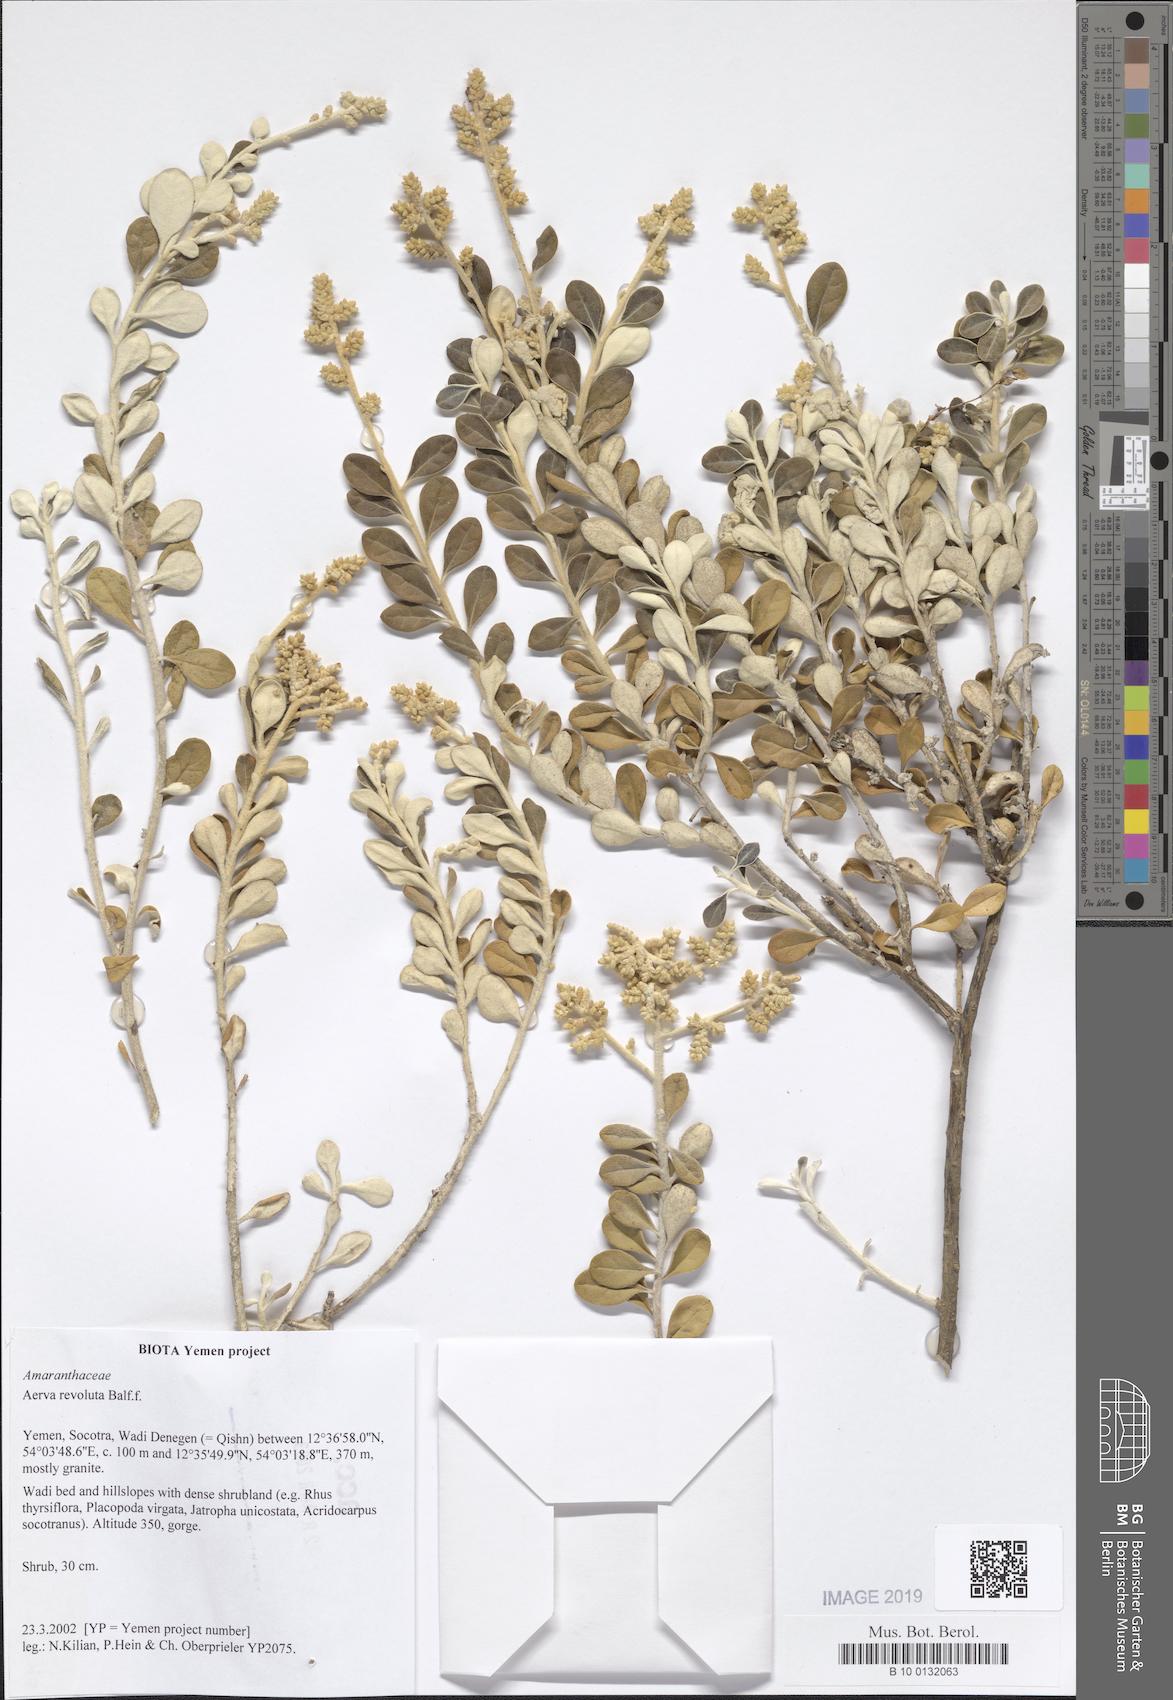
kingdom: Plantae
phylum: Tracheophyta
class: Magnoliopsida
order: Caryophyllales
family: Amaranthaceae
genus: Paraerva
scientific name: Paraerva revoluta
